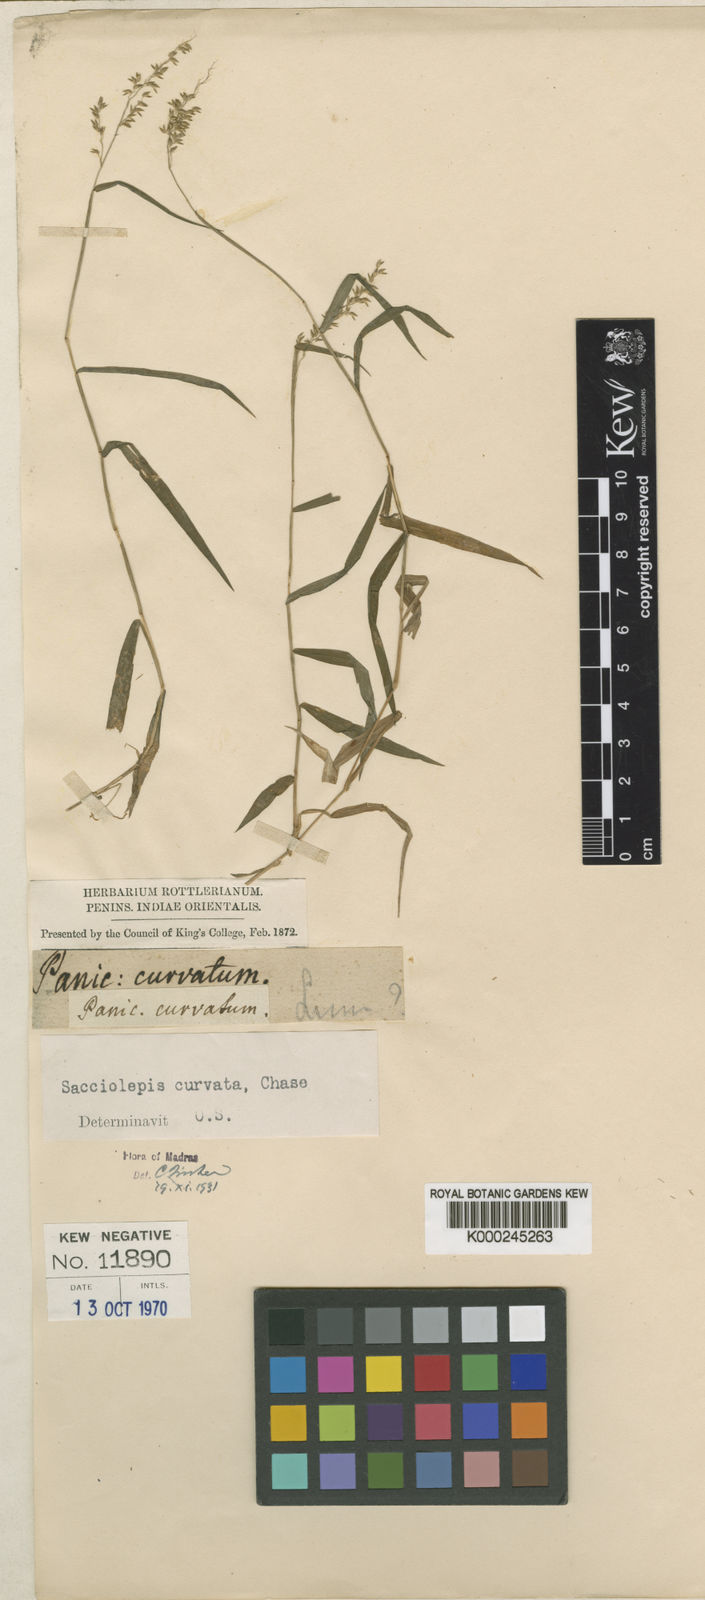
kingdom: Plantae
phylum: Tracheophyta
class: Liliopsida
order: Poales
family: Poaceae
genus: Sacciolepis
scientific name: Sacciolepis curvata
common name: Forest hood grass
